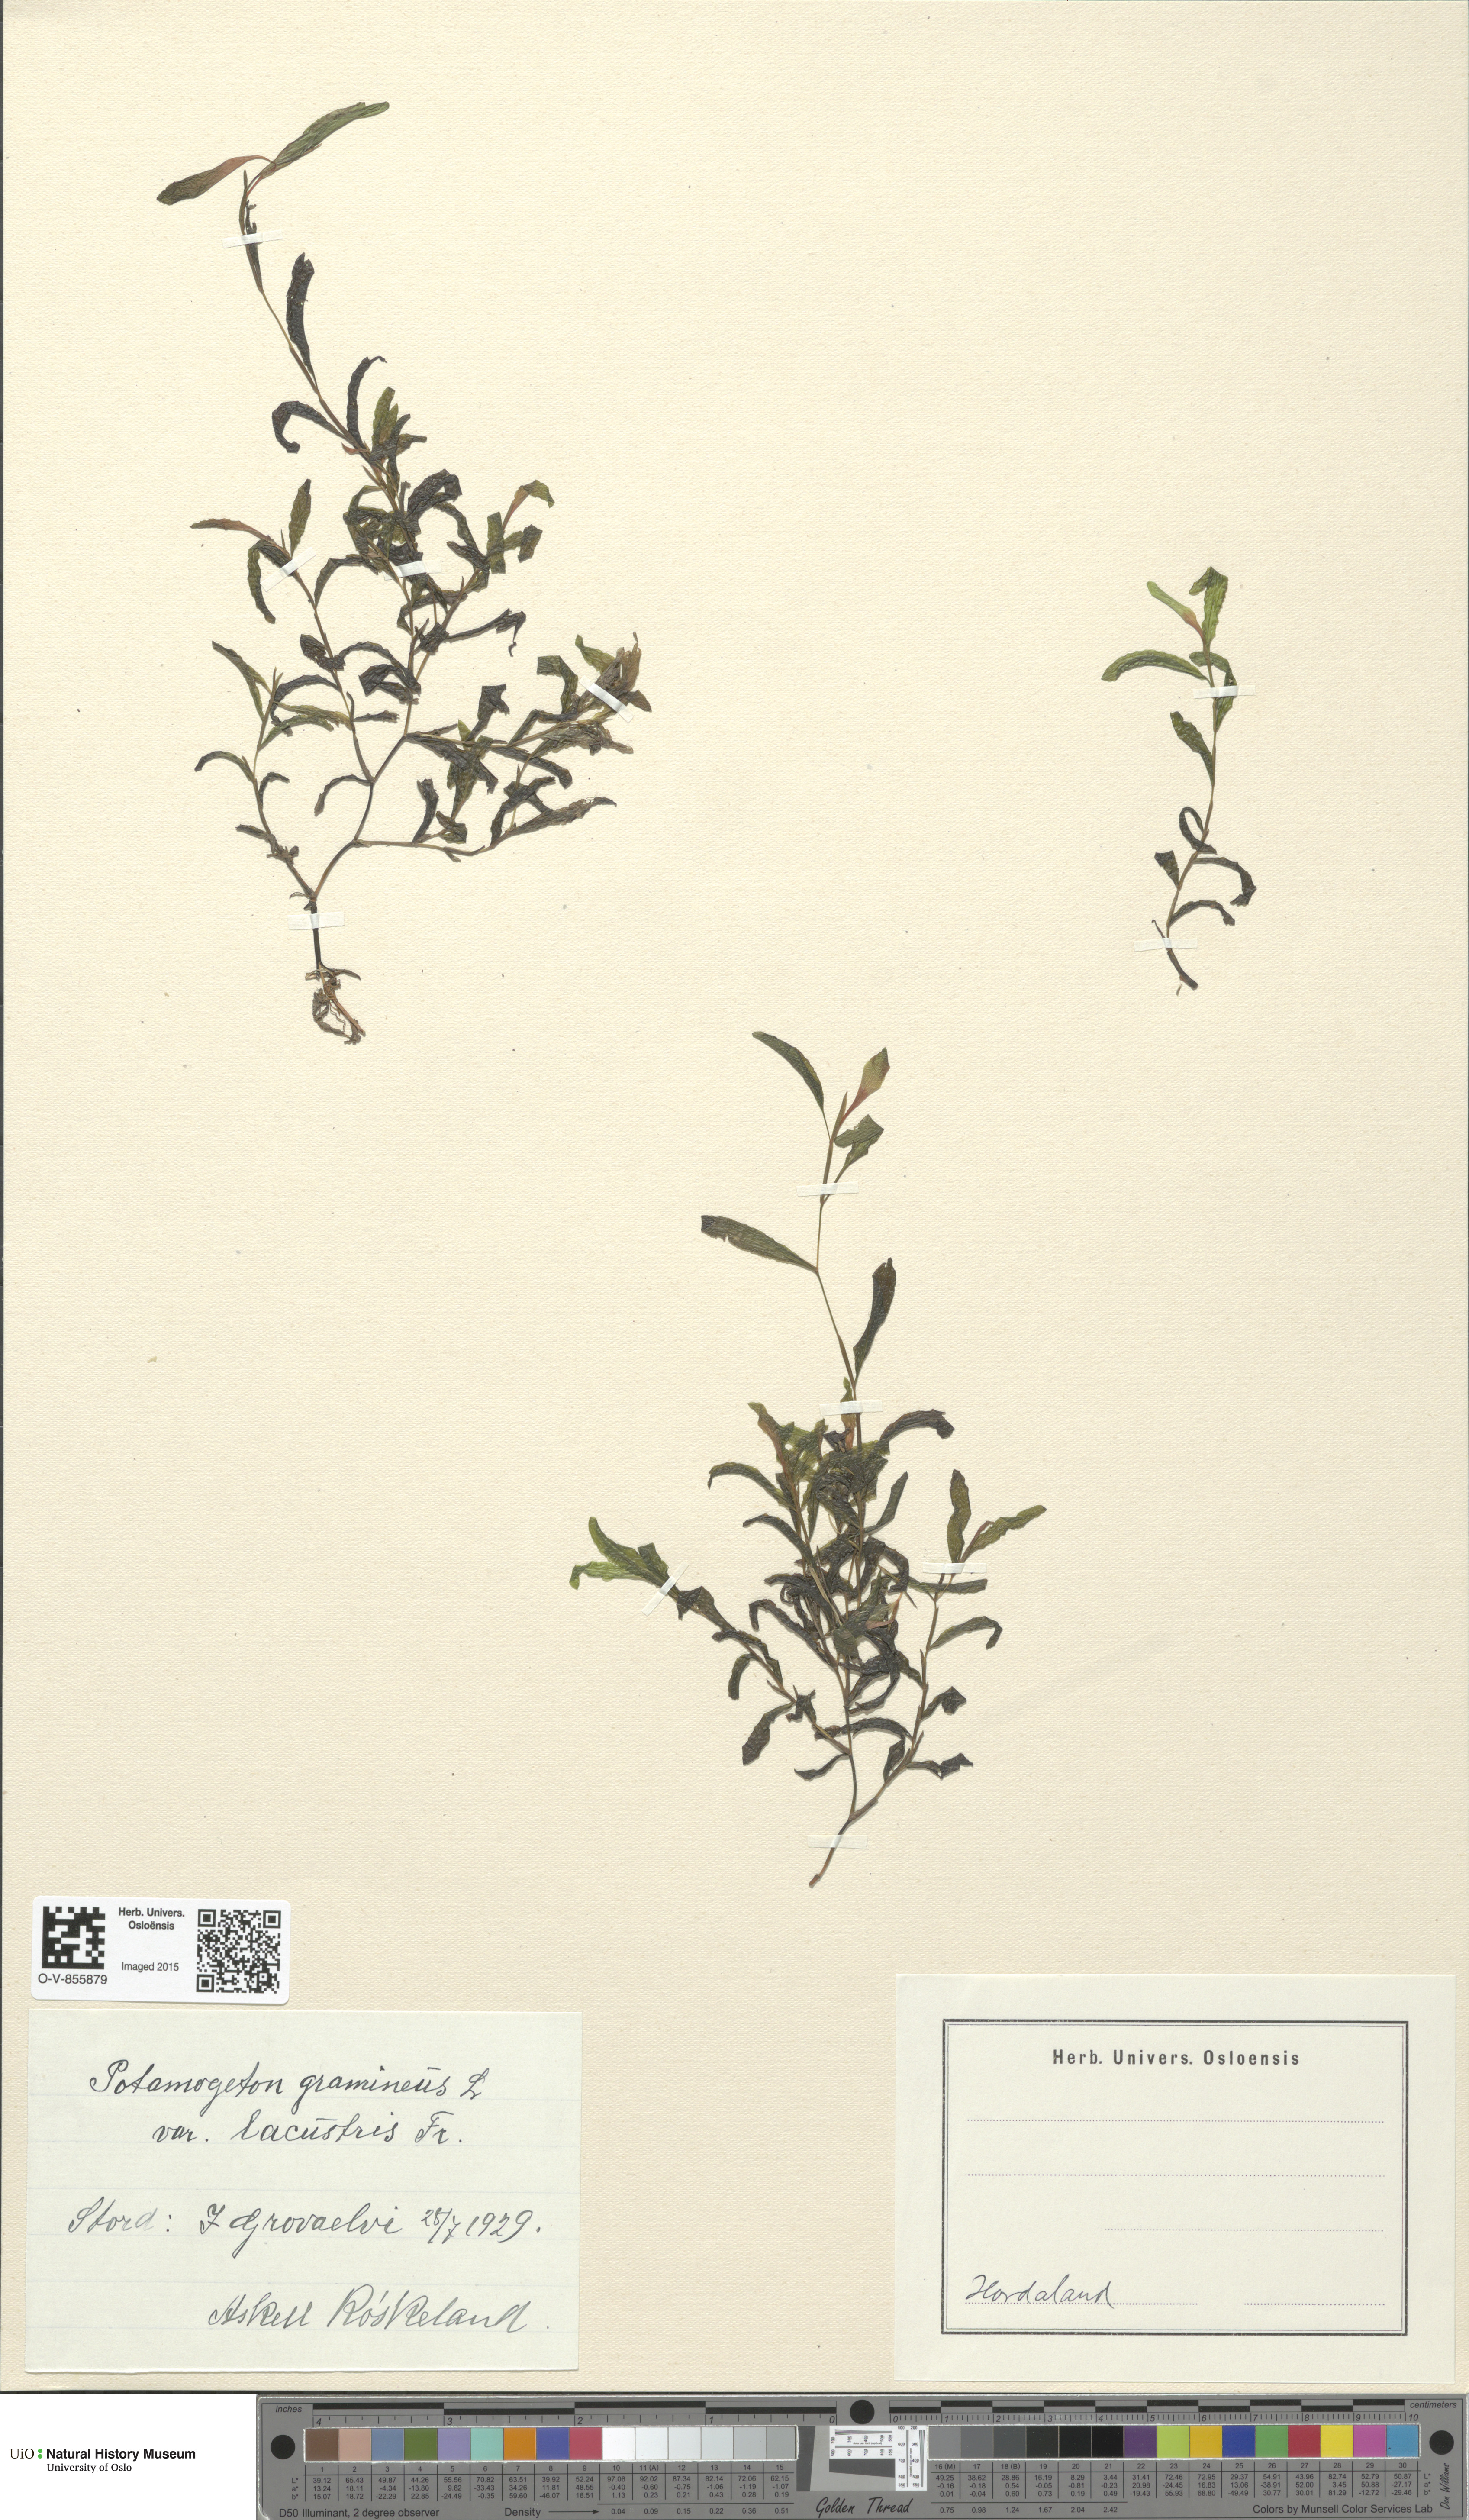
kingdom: Plantae
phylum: Tracheophyta
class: Liliopsida
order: Alismatales
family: Potamogetonaceae
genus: Potamogeton
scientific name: Potamogeton gramineus
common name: Various-leaved pondweed
